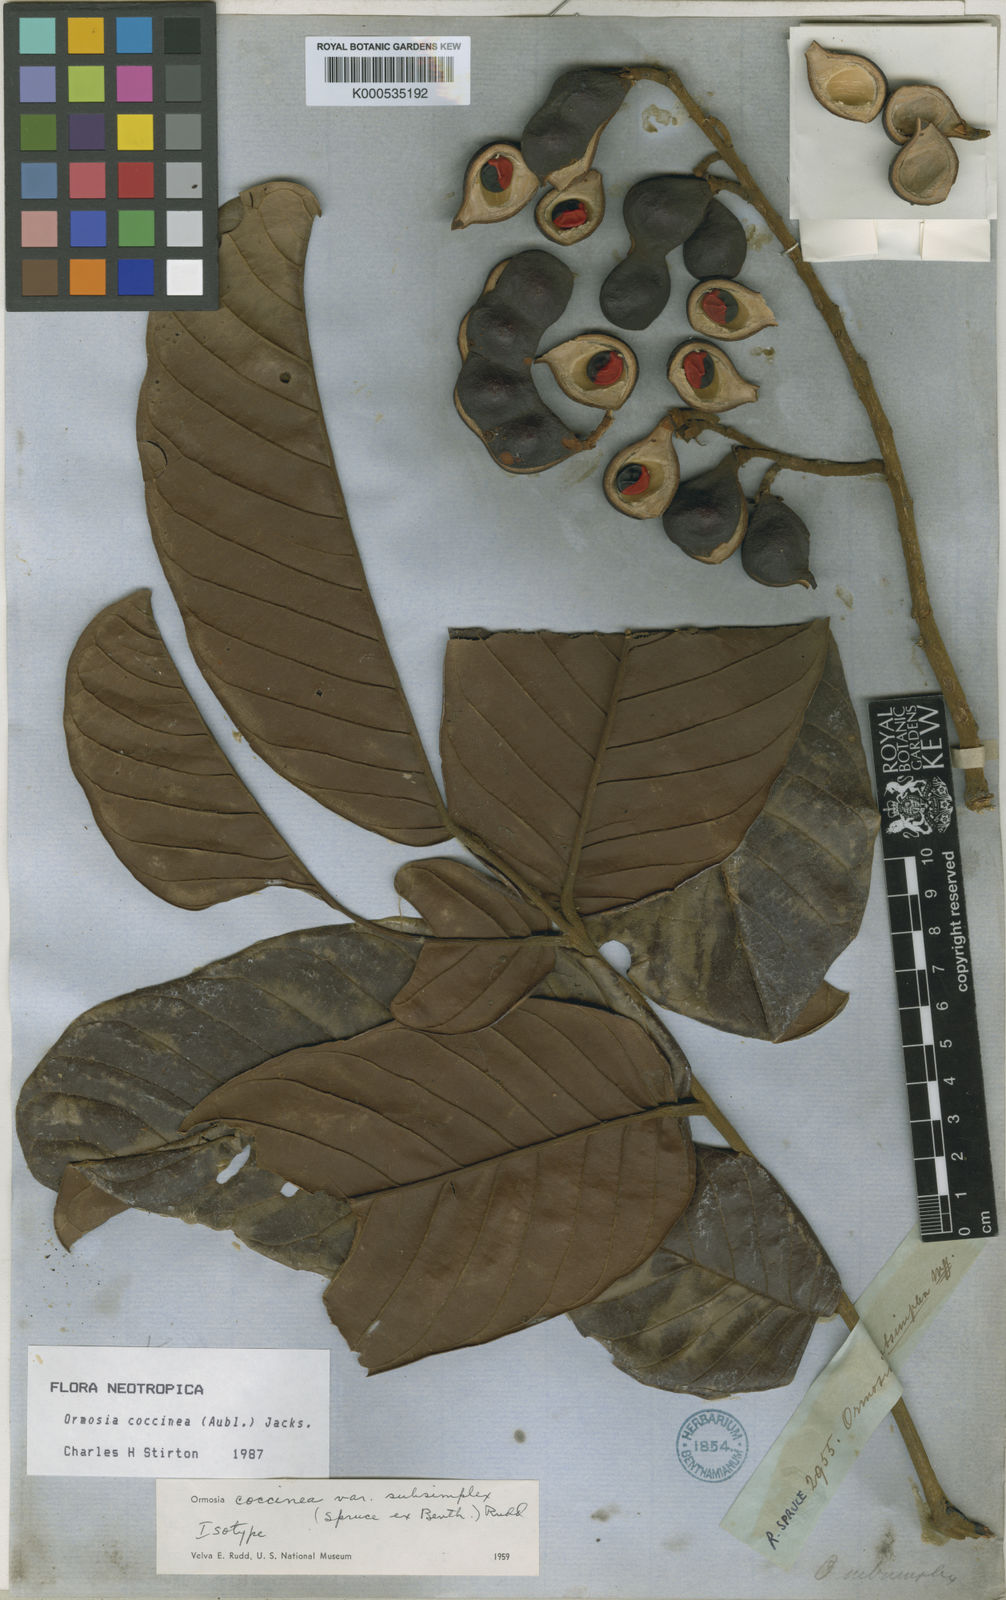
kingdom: Plantae
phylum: Tracheophyta
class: Magnoliopsida
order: Fabales
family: Fabaceae
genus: Ormosia
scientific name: Ormosia coccinea
